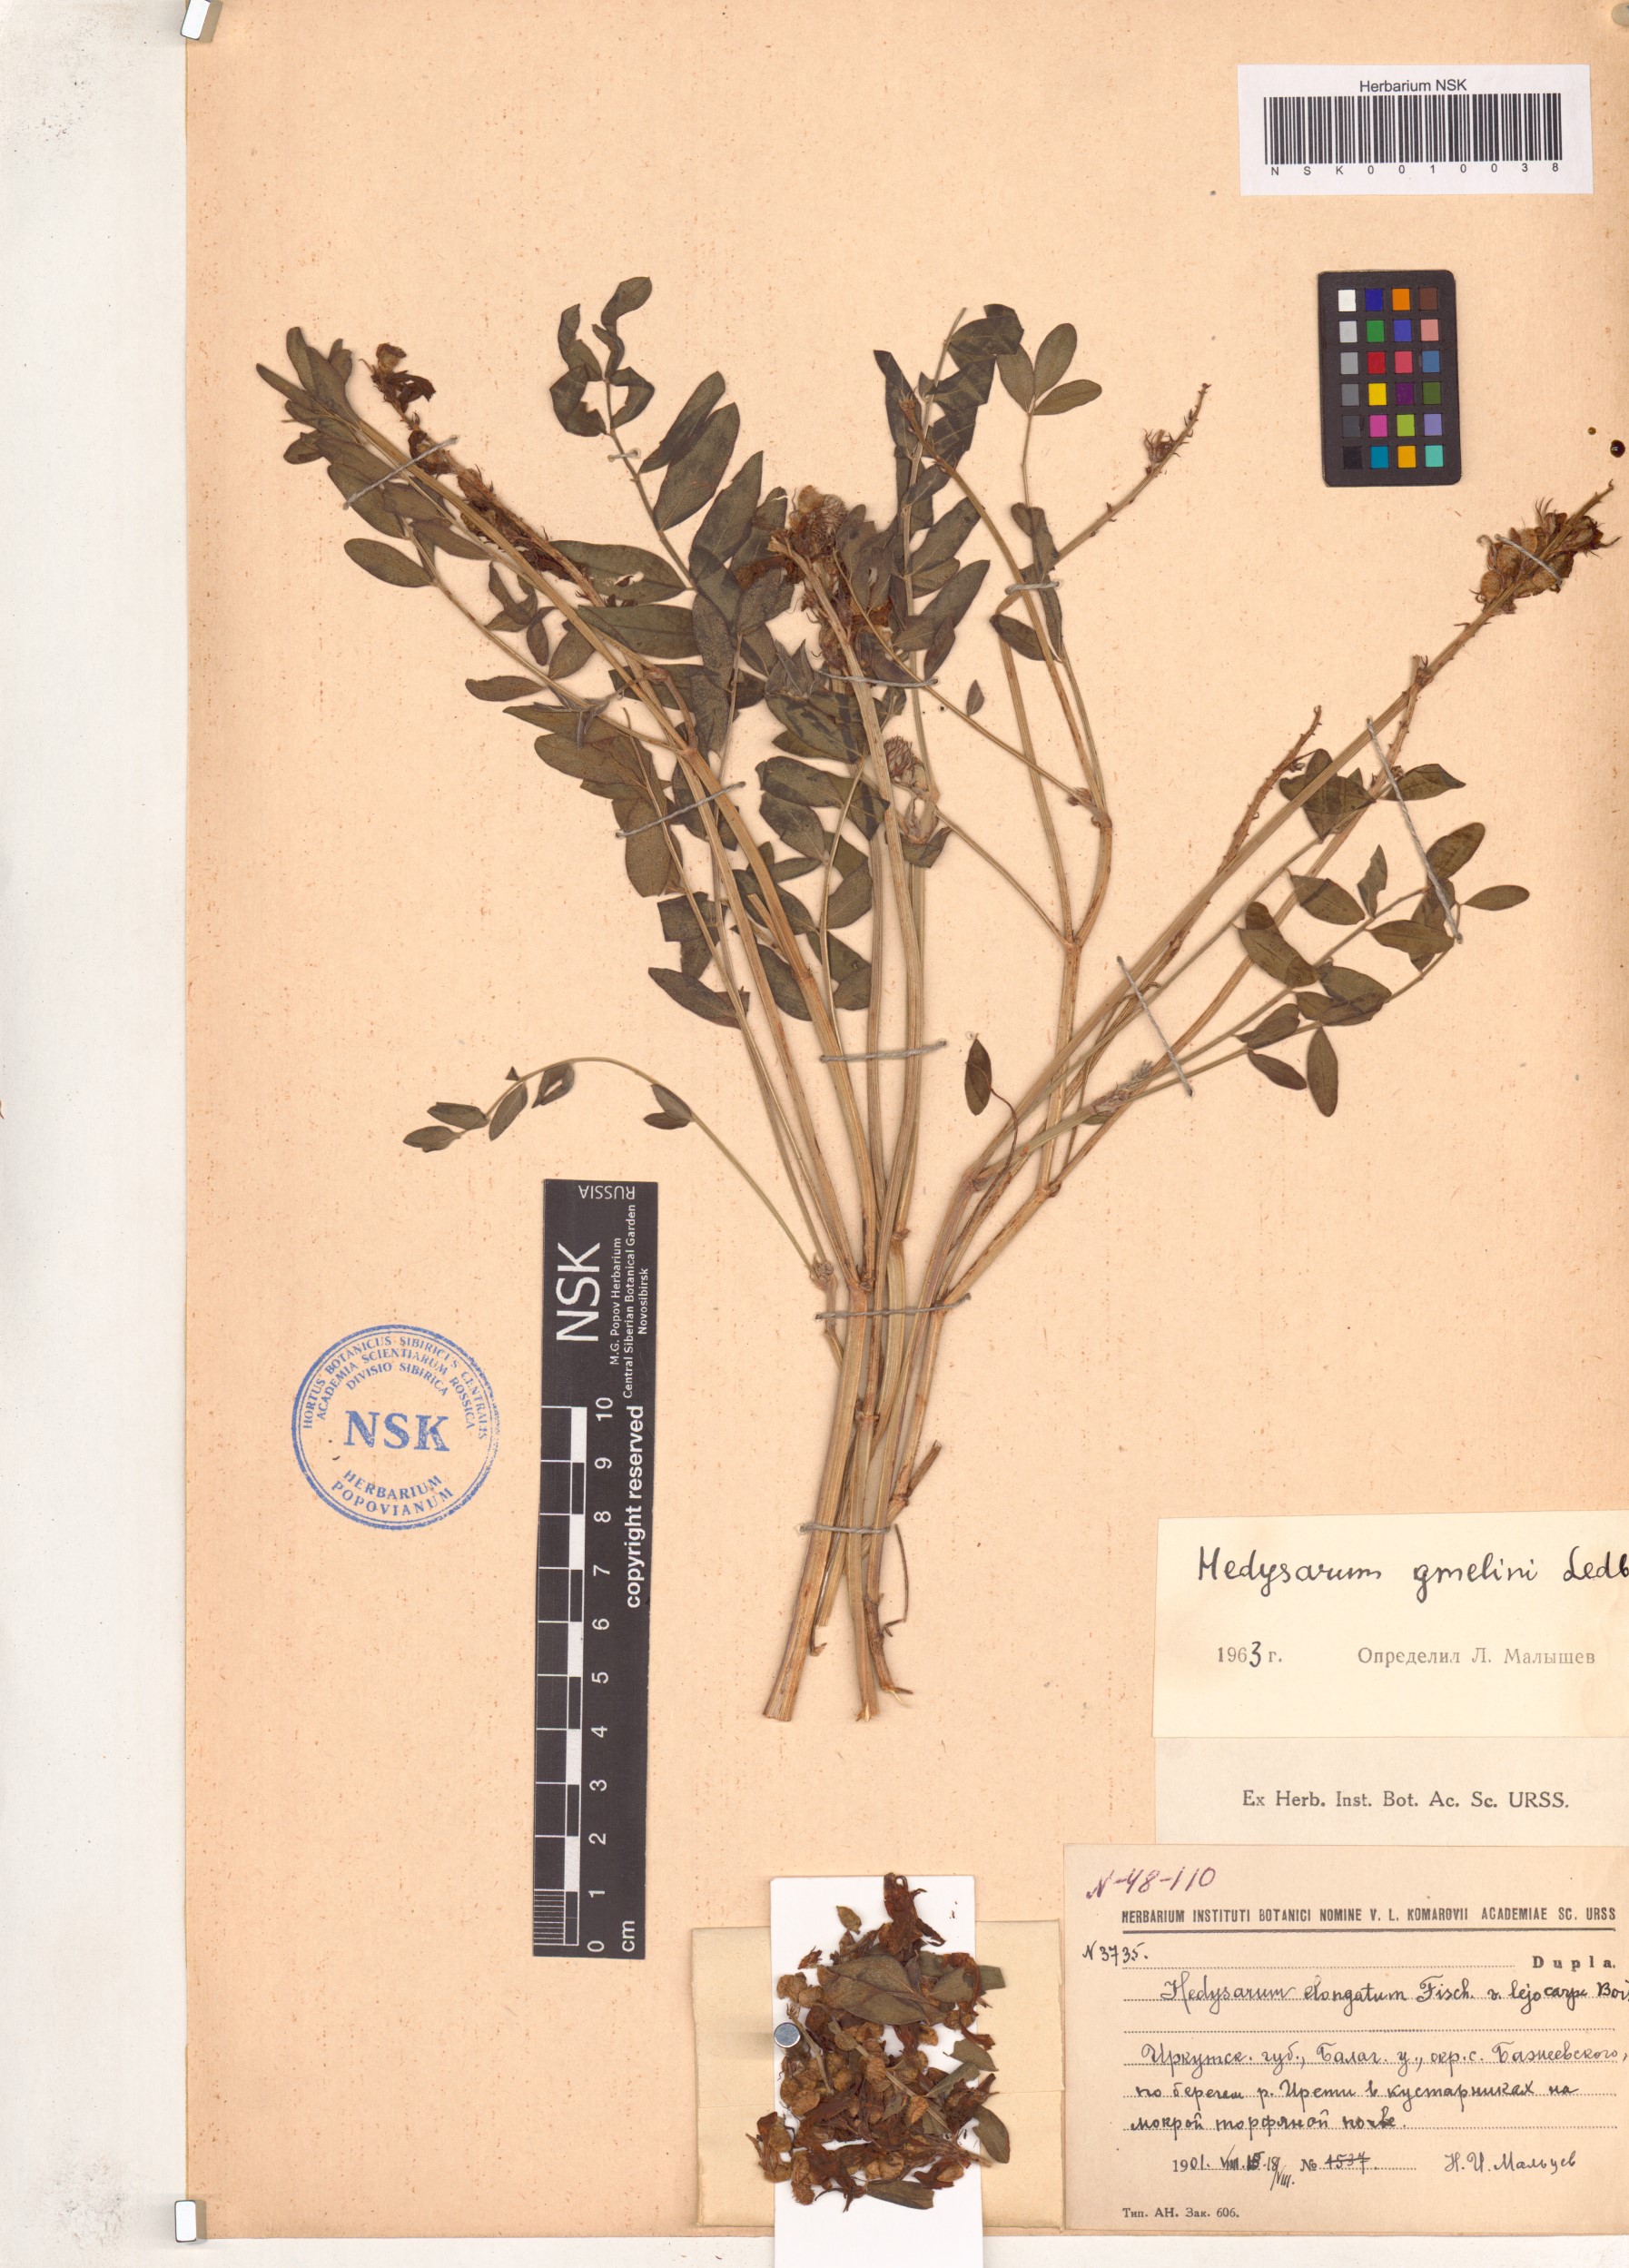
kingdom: Plantae
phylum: Tracheophyta
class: Magnoliopsida
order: Fabales
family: Fabaceae
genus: Hedysarum
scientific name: Hedysarum gmelinii
